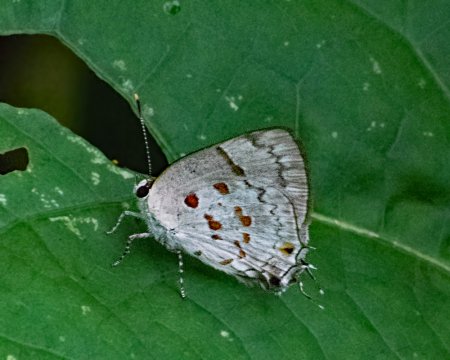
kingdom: Animalia
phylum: Arthropoda
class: Insecta
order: Lepidoptera
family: Lycaenidae
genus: Tmolus
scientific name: Tmolus echion
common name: Red-spotted Hairstreak
